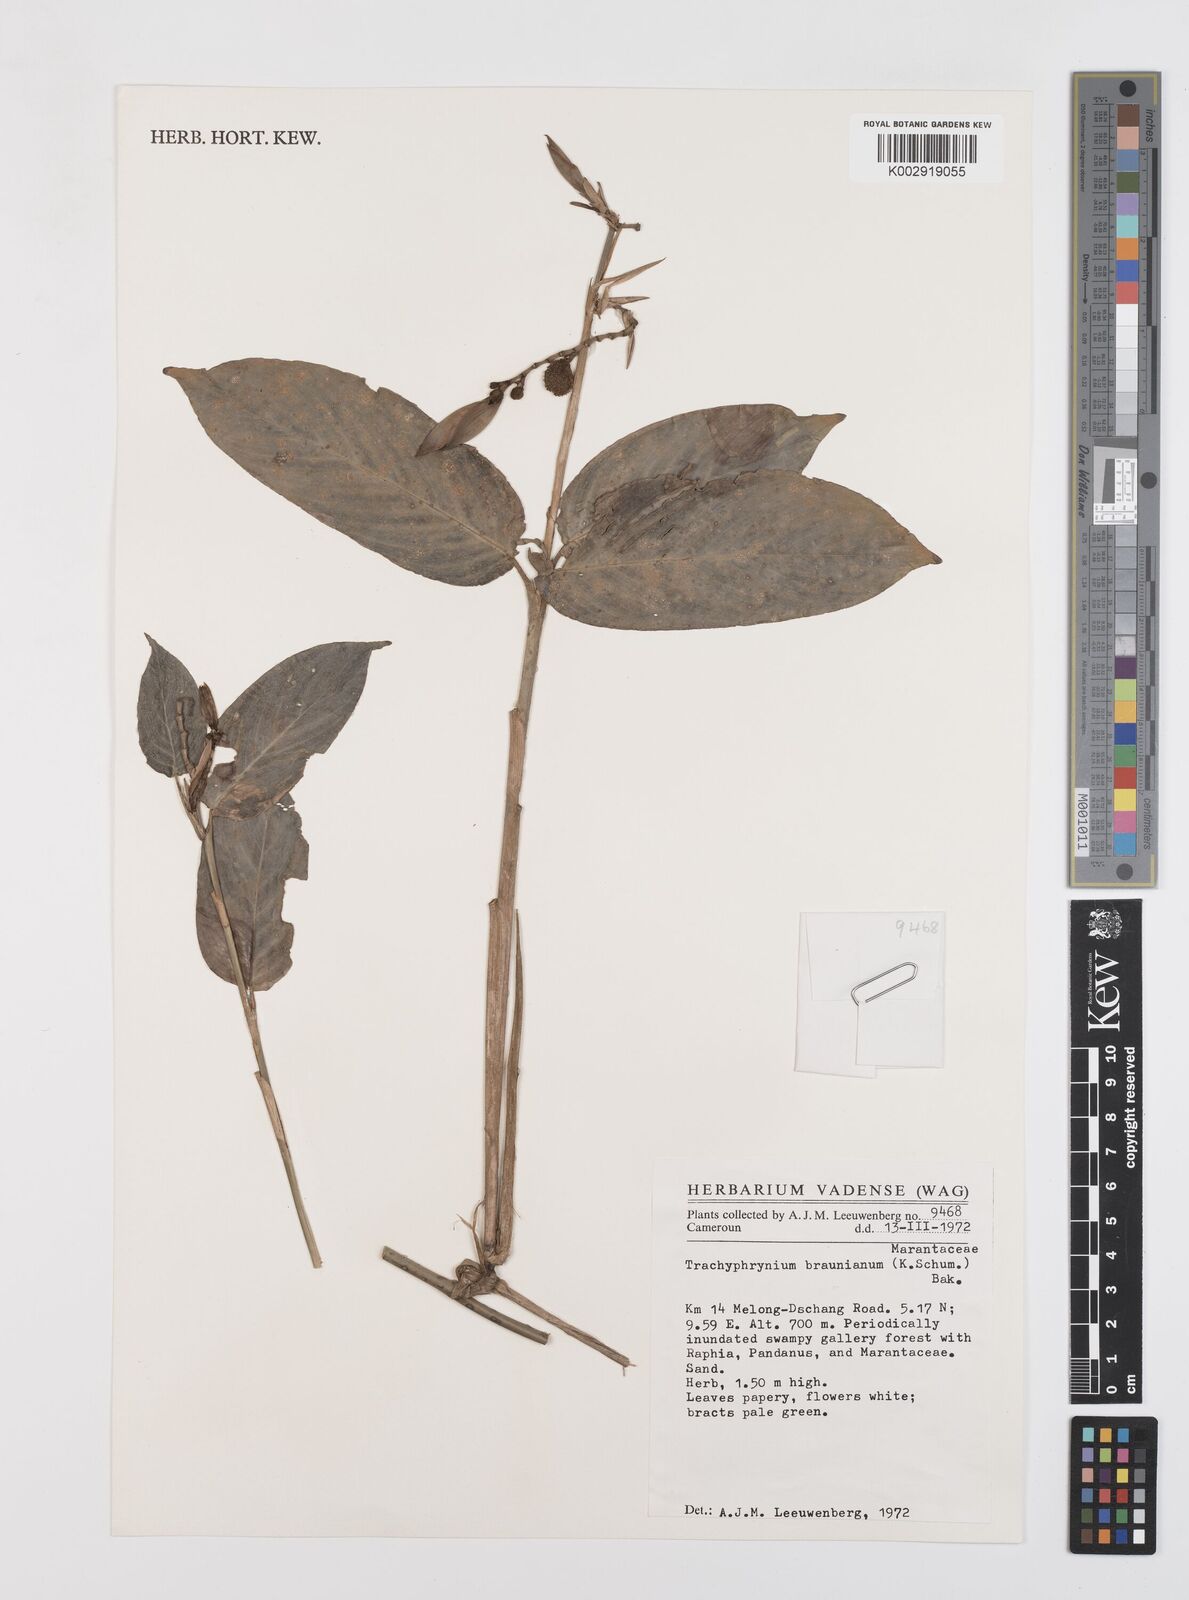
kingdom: Plantae
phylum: Tracheophyta
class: Liliopsida
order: Zingiberales
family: Marantaceae
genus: Trachyphrynium
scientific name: Trachyphrynium braunianum
